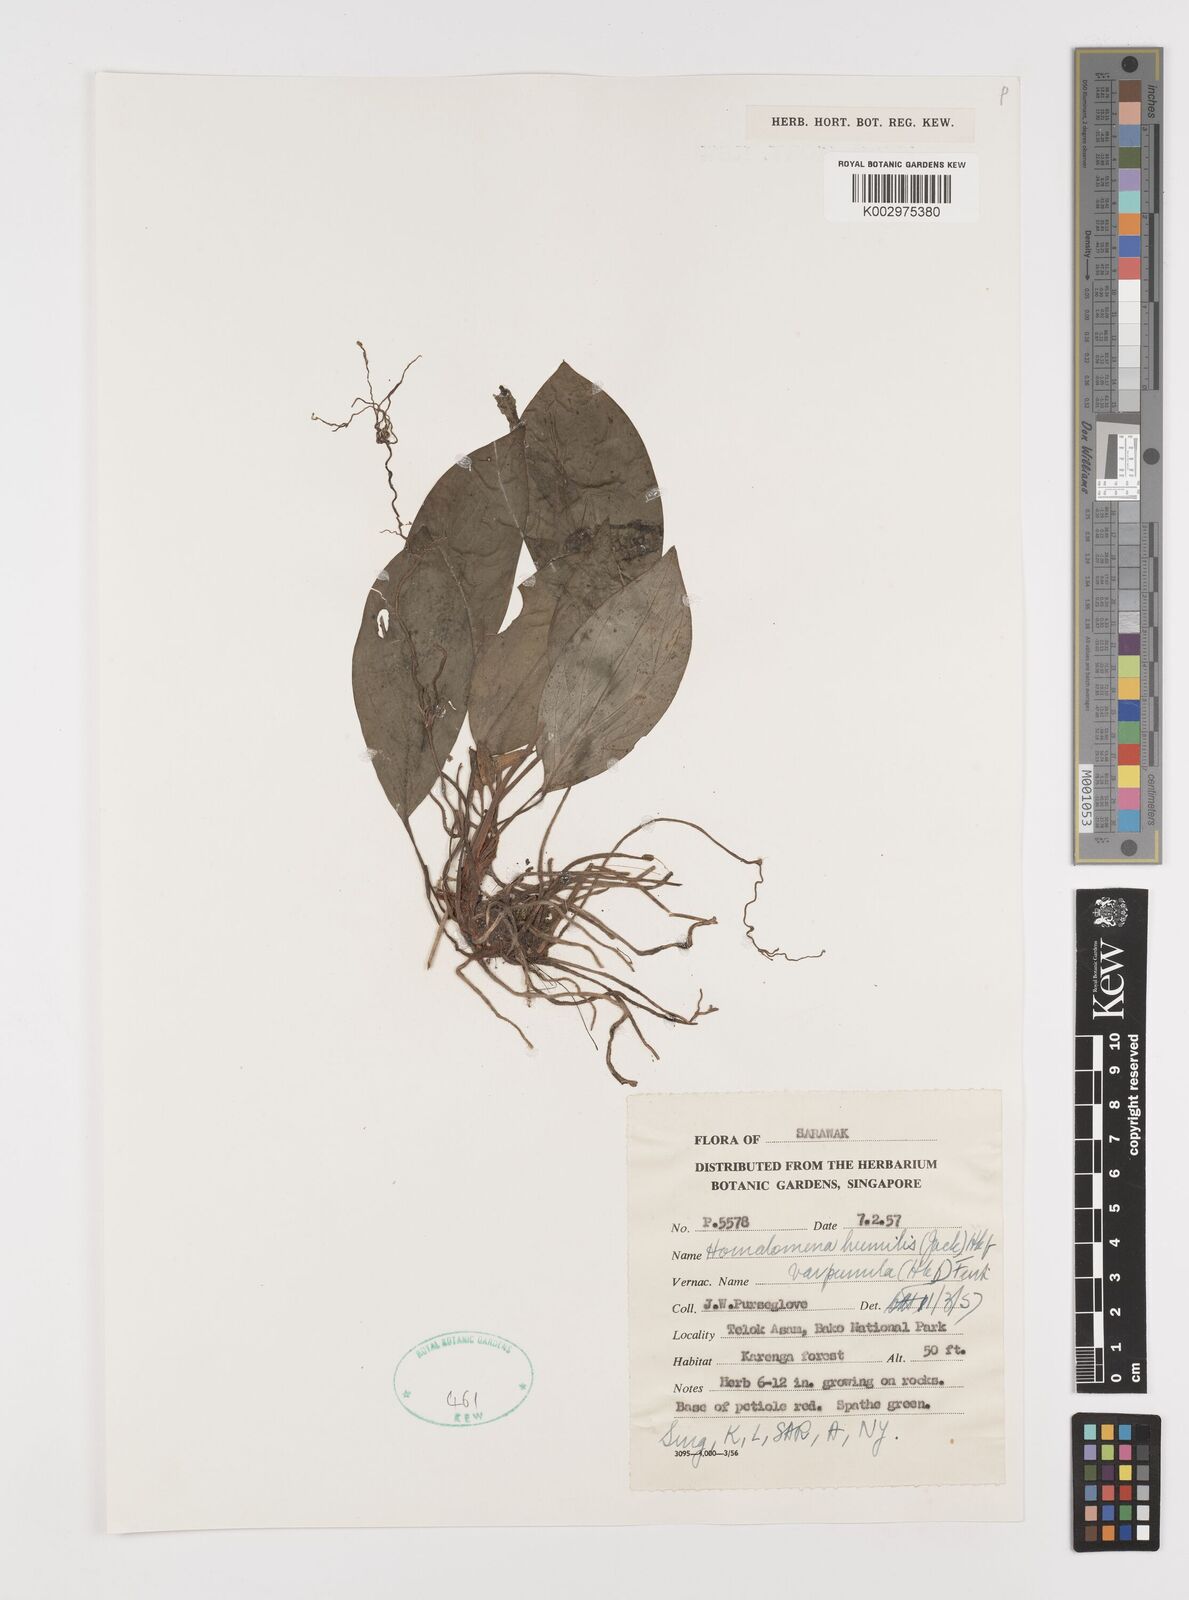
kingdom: Plantae
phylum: Tracheophyta
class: Liliopsida
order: Alismatales
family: Araceae
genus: Homalomena
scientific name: Homalomena humilis
